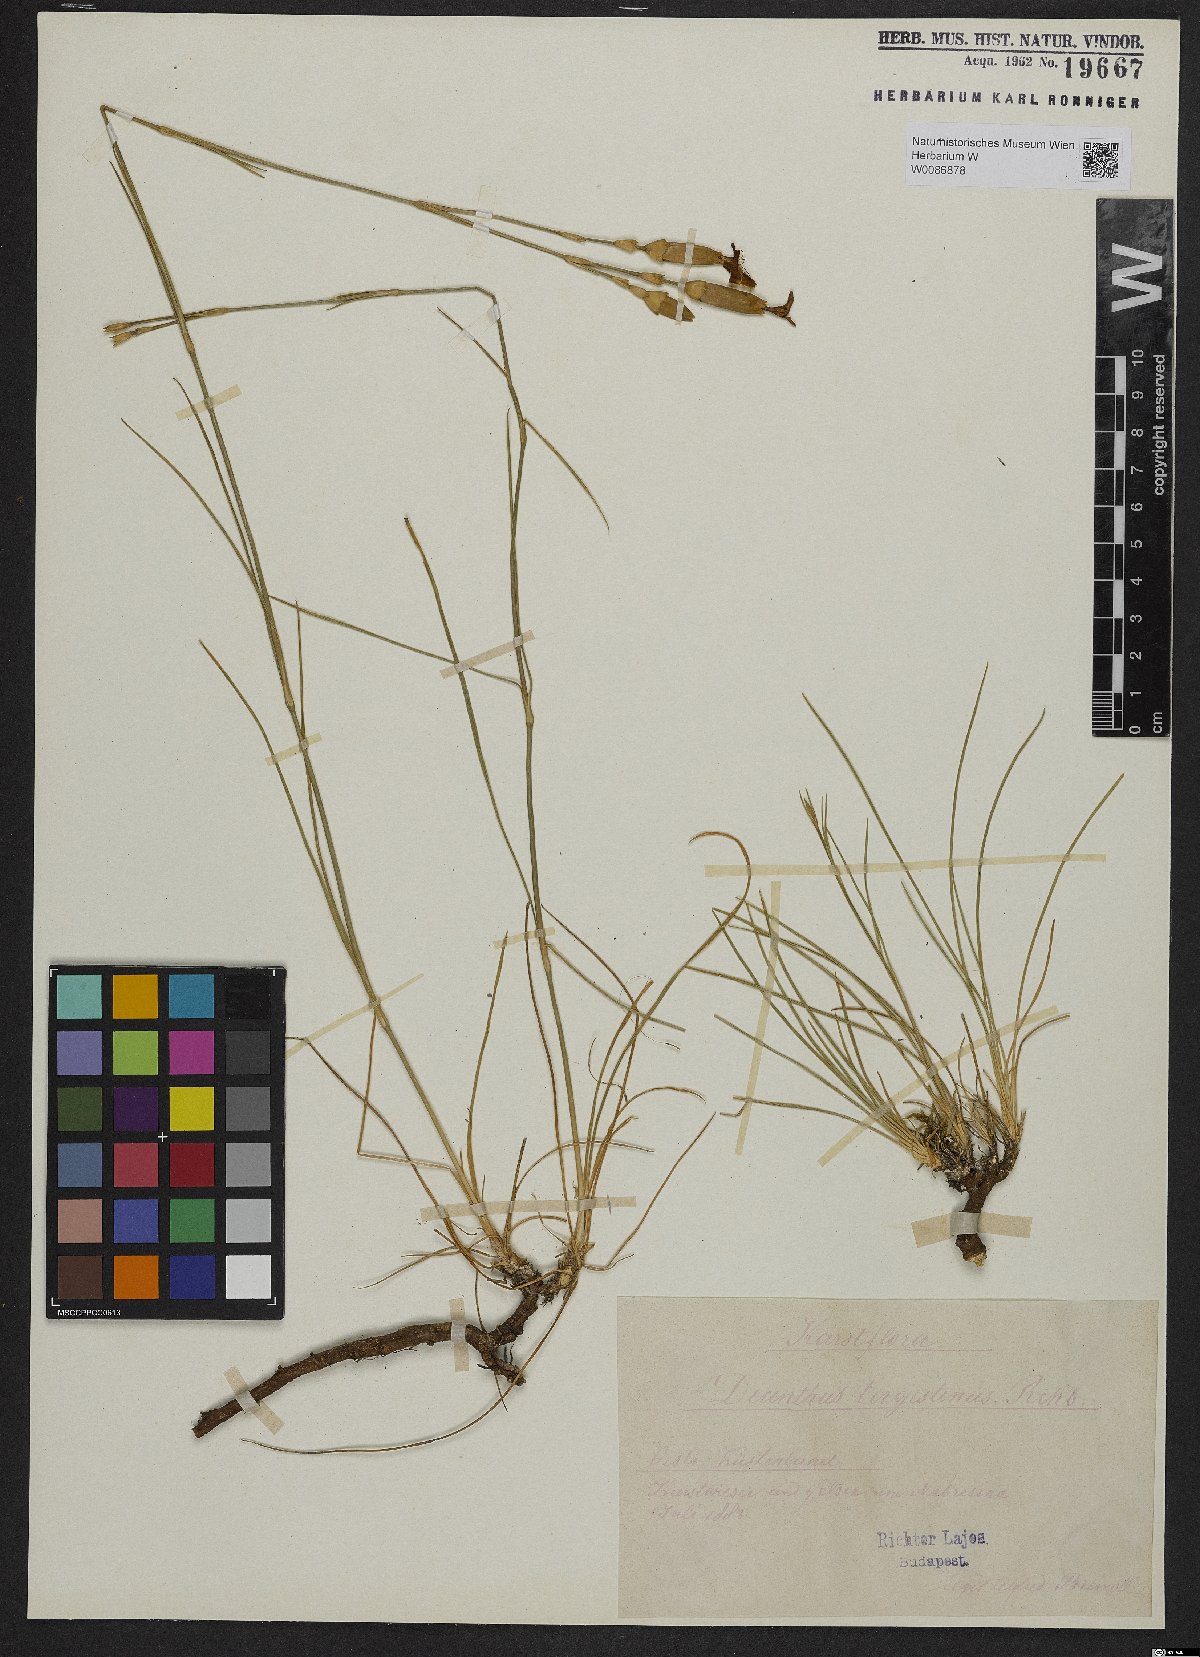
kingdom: Plantae
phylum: Tracheophyta
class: Magnoliopsida
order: Caryophyllales
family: Caryophyllaceae
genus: Dianthus
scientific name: Dianthus sylvestris
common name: Wood pink
